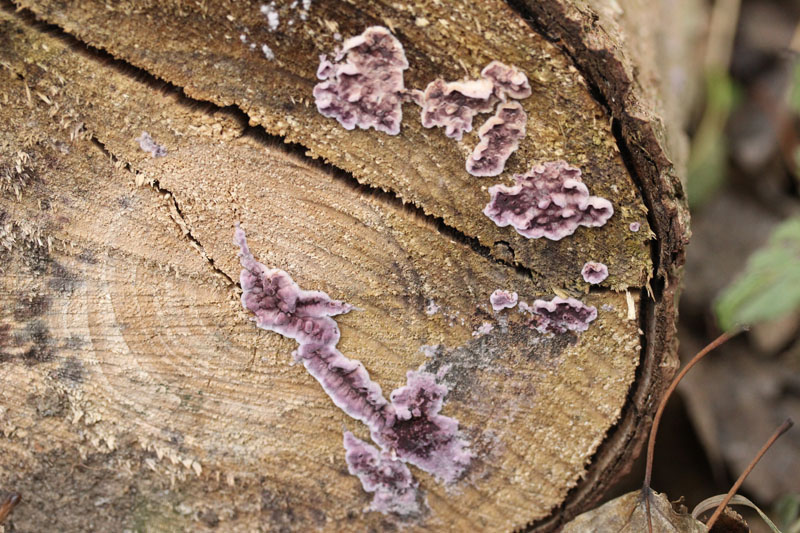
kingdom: Fungi
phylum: Basidiomycota
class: Agaricomycetes
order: Agaricales
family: Cyphellaceae
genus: Chondrostereum
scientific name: Chondrostereum purpureum
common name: purpurlædersvamp
